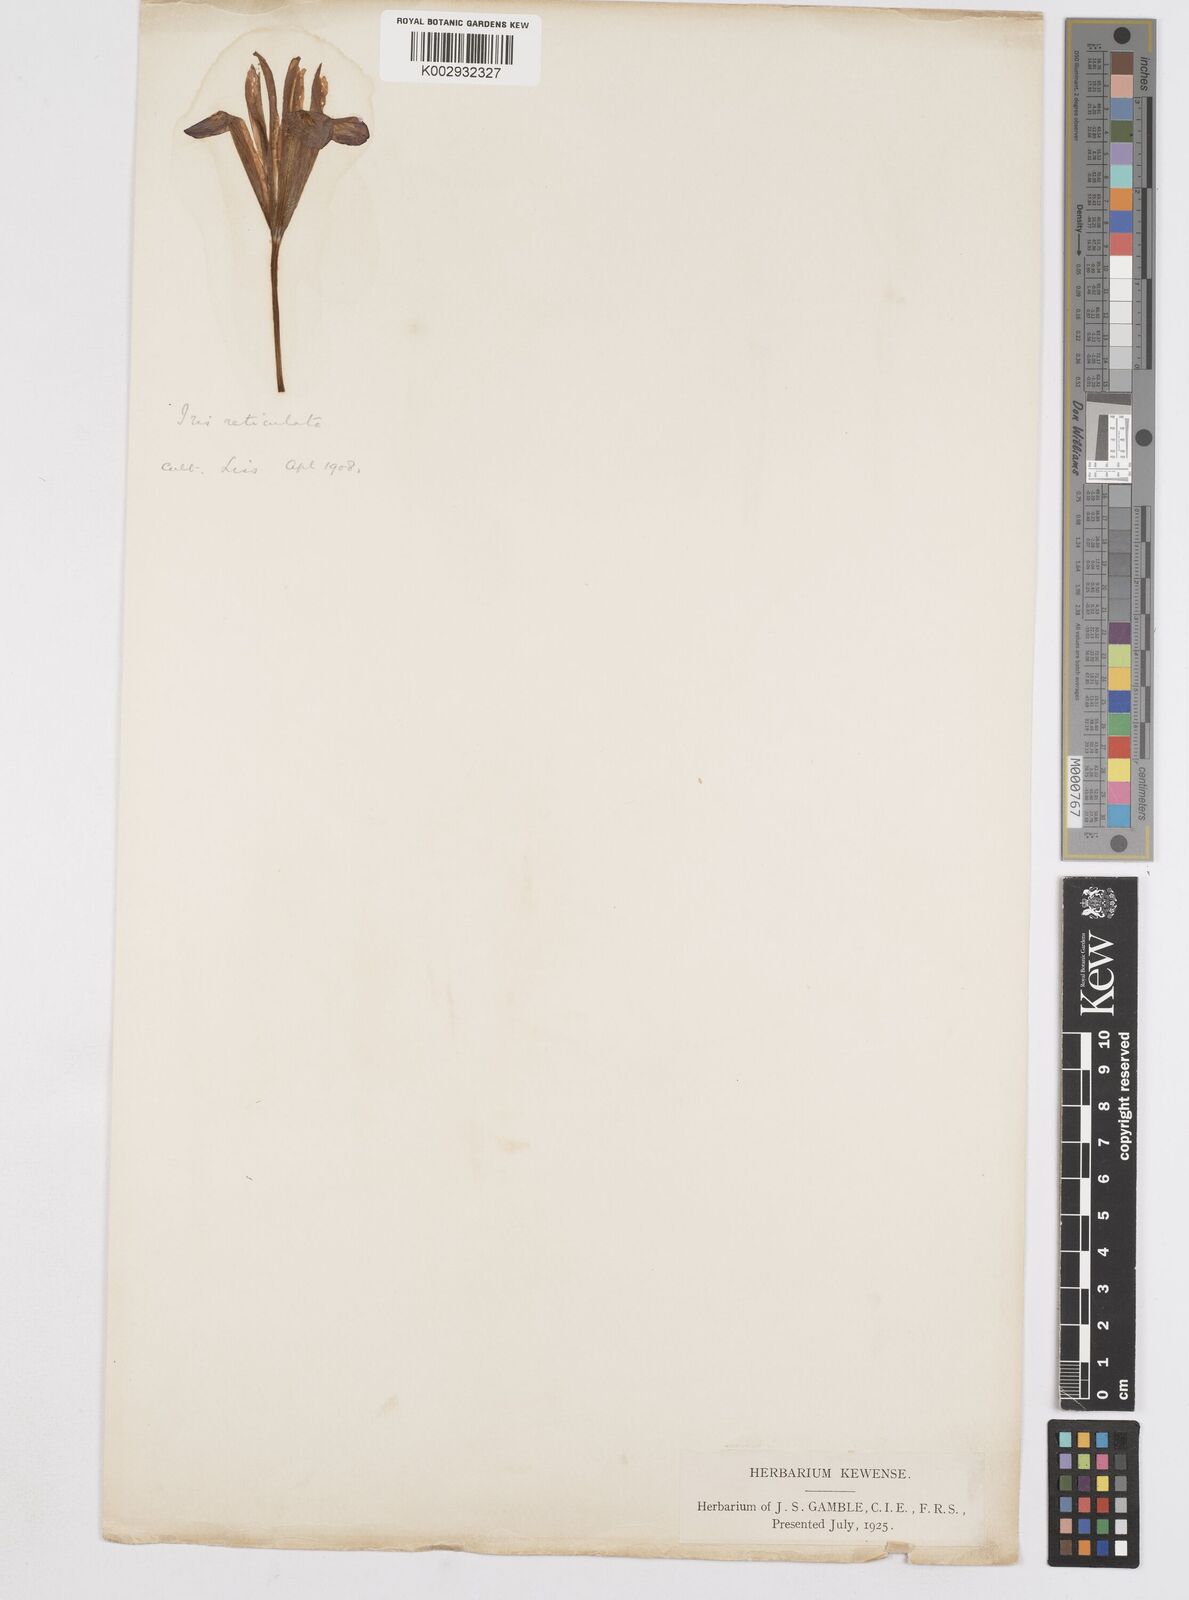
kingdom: Plantae
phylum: Tracheophyta
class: Liliopsida
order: Asparagales
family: Iridaceae
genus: Iris
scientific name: Iris reticulata
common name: Netted iris
